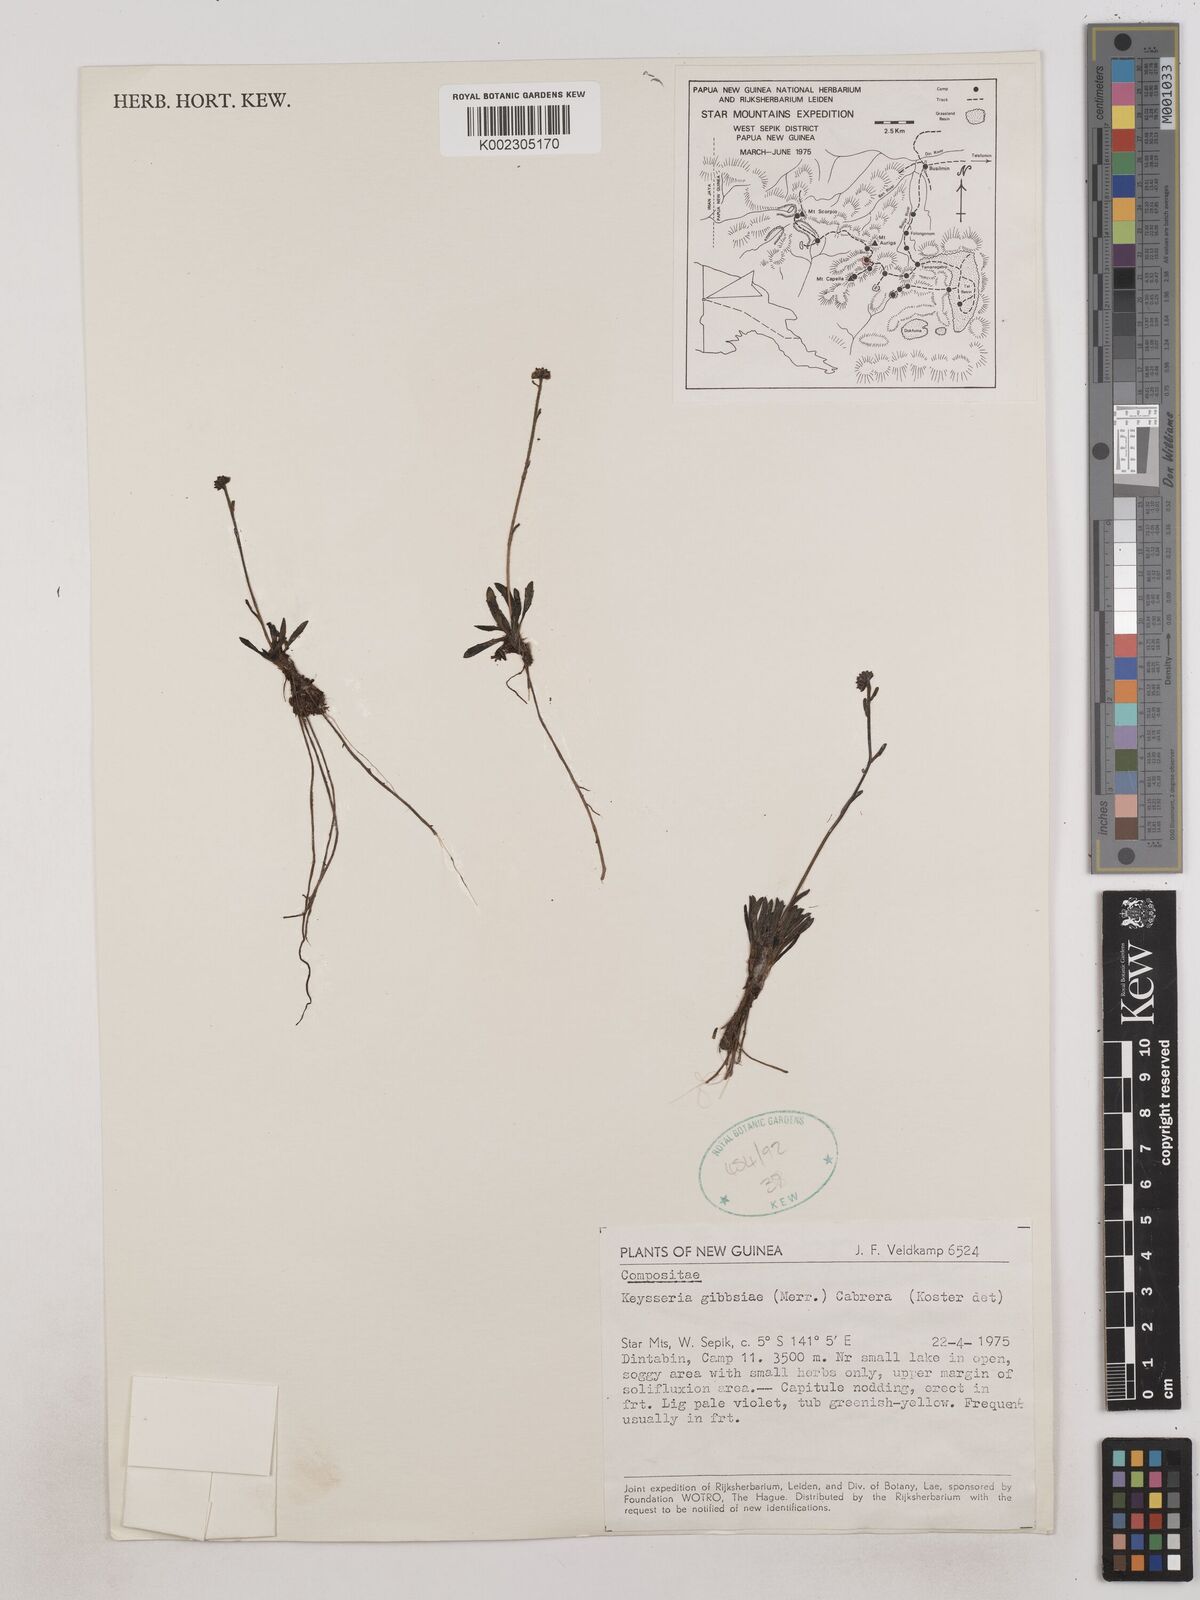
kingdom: Plantae
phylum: Tracheophyta
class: Magnoliopsida
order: Asterales
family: Asteraceae
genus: Keysseria
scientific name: Keysseria gibbsiae
